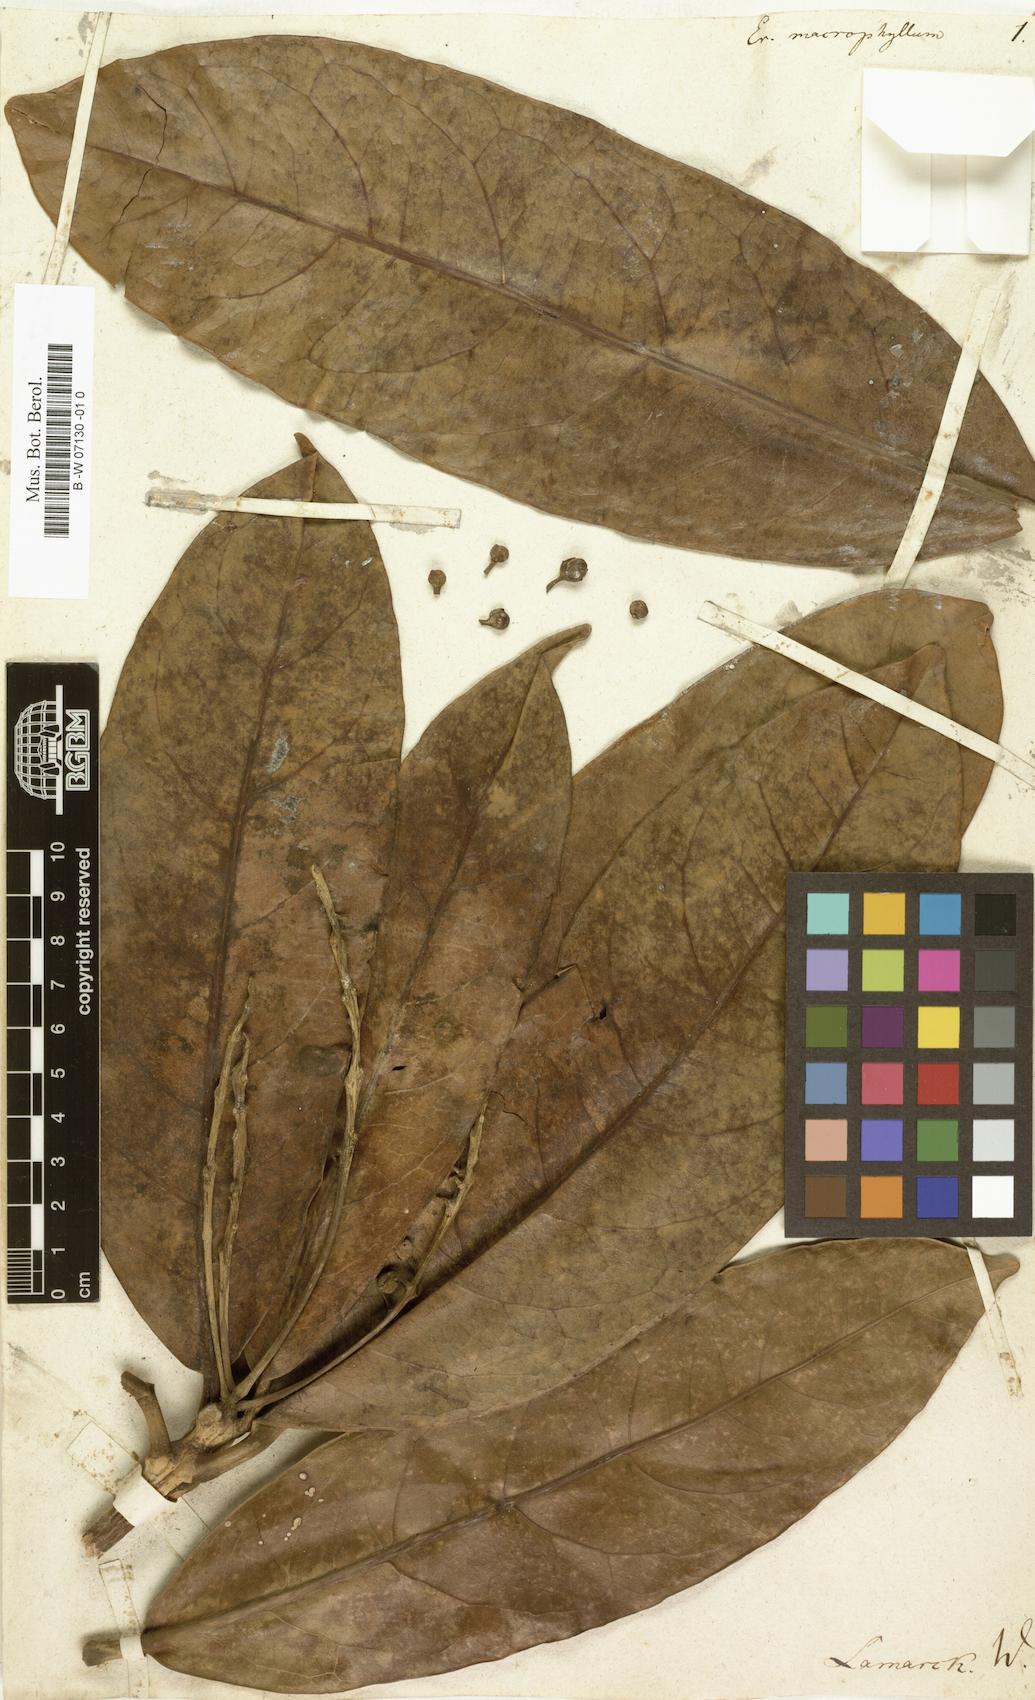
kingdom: Plantae
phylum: Tracheophyta
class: Magnoliopsida
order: Malpighiales
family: Achariaceae
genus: Erythrospermum
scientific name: Erythrospermum monticola
